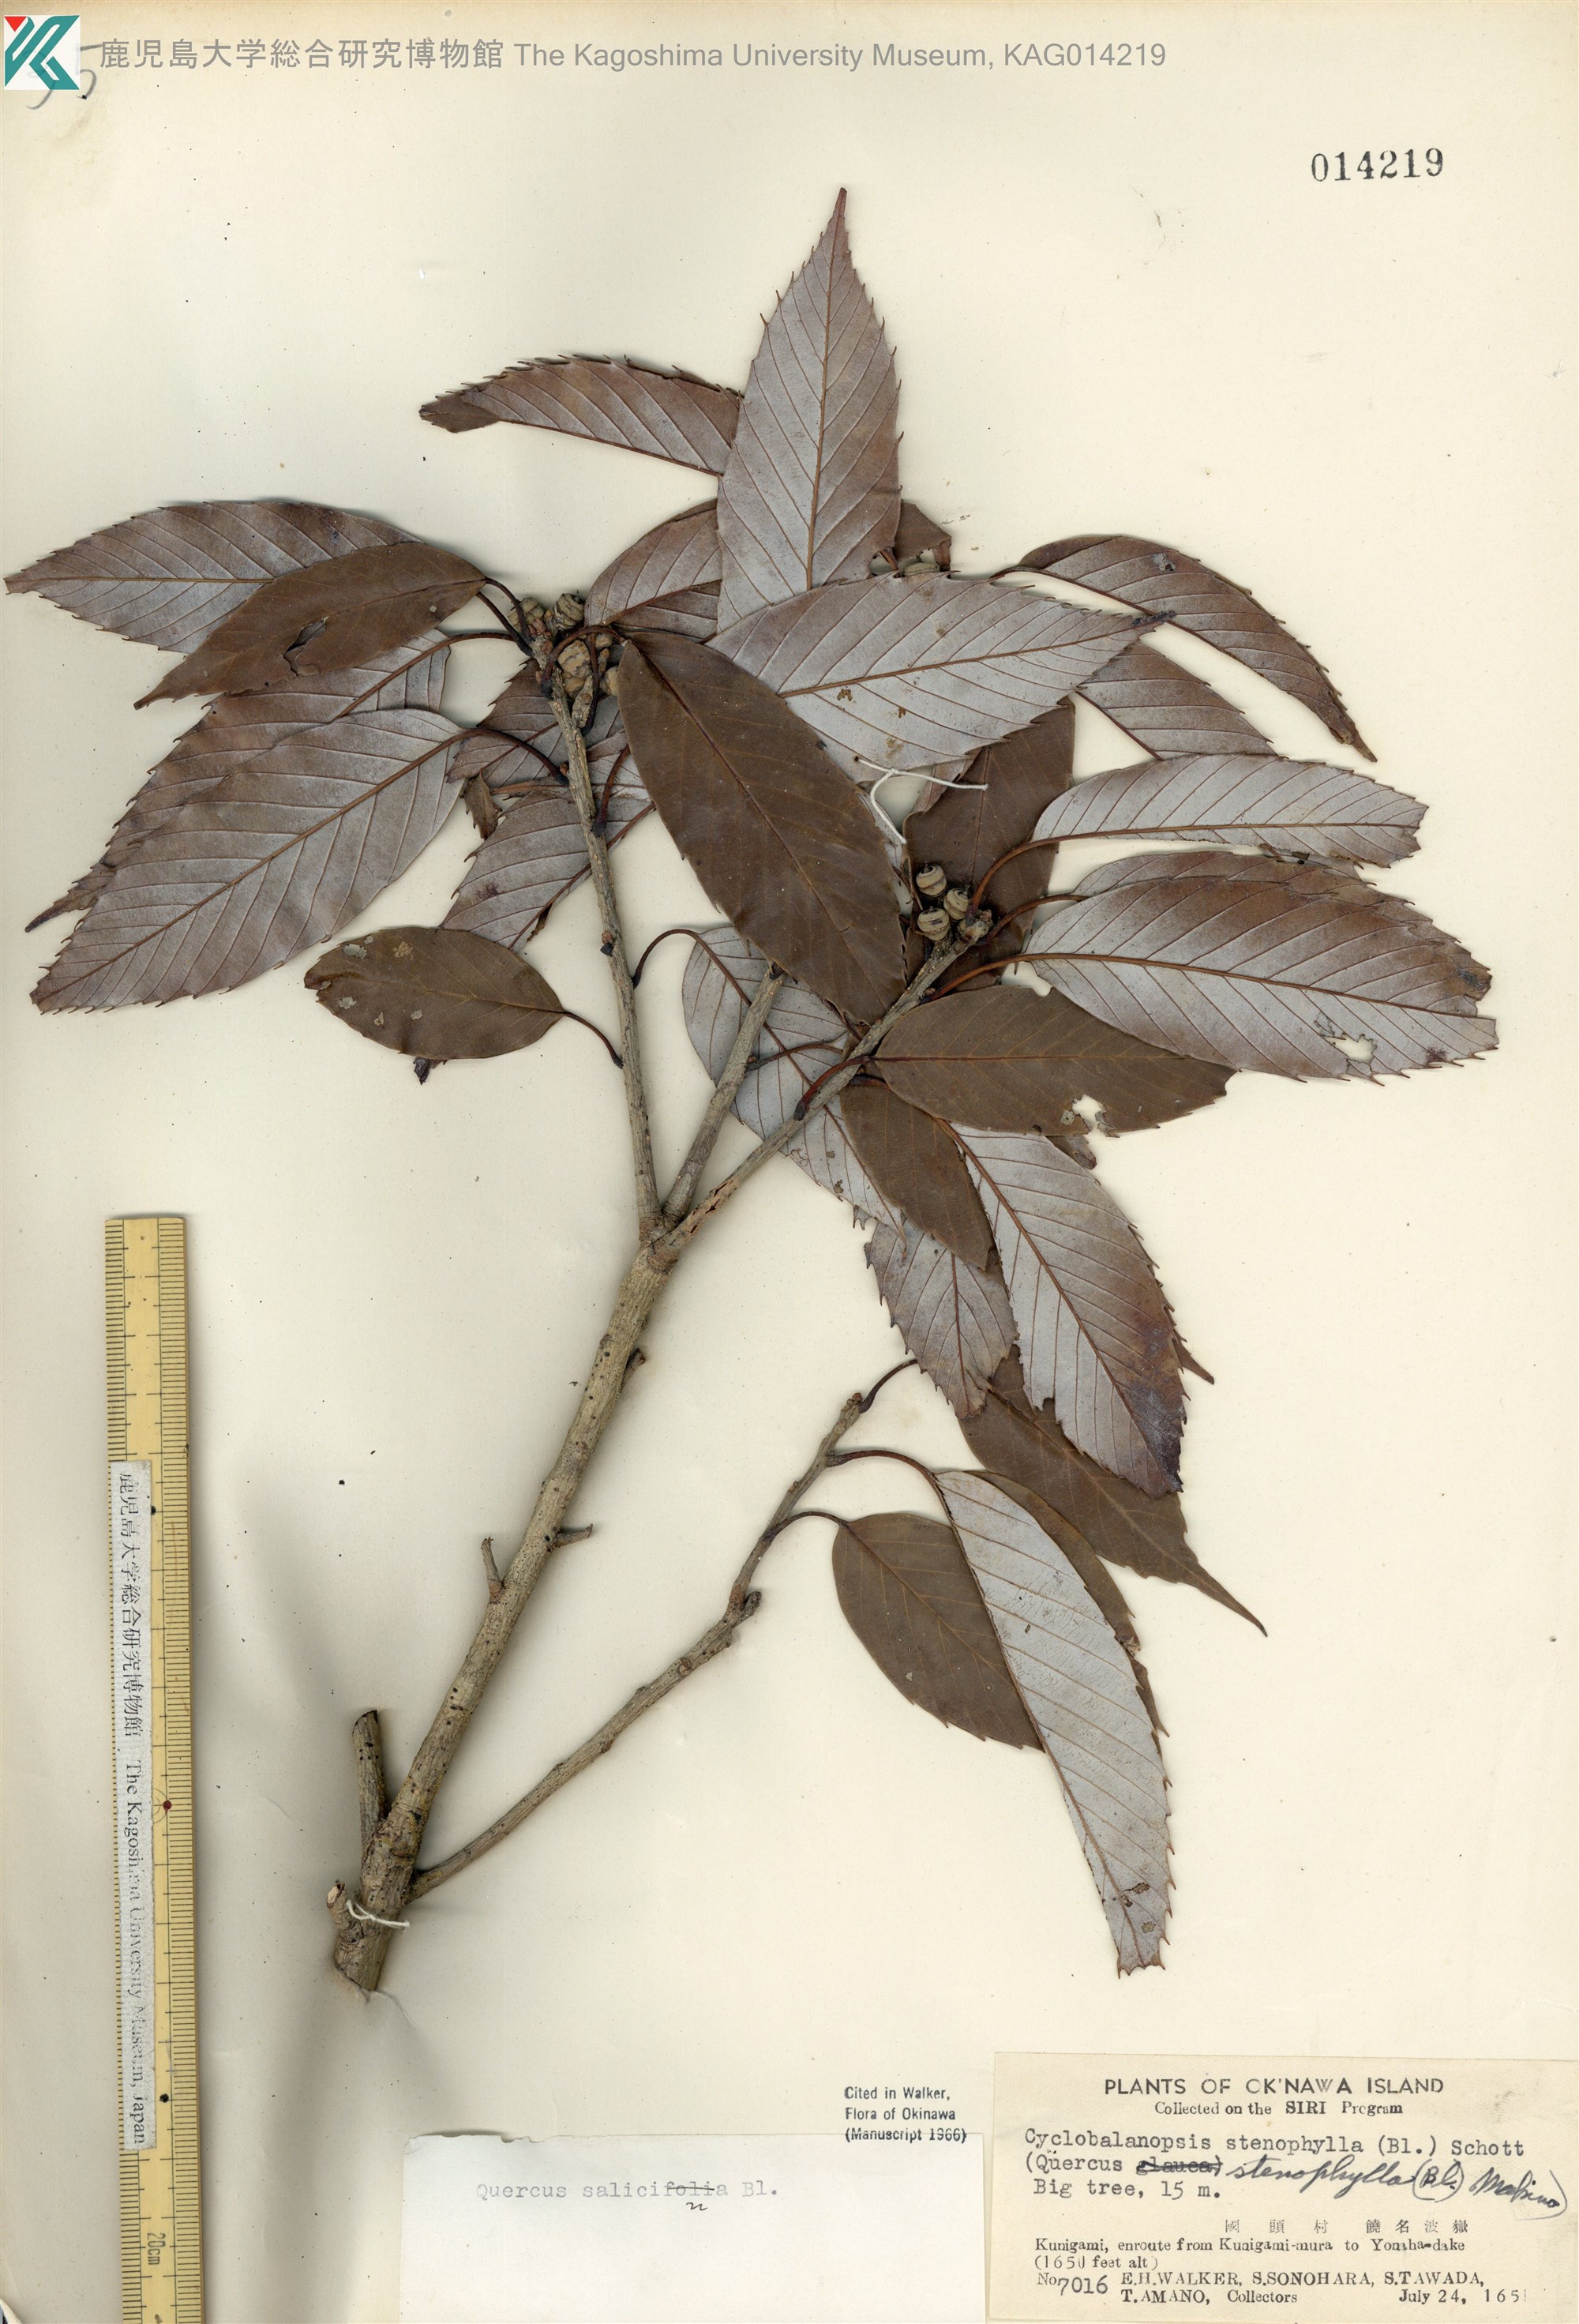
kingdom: Plantae
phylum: Tracheophyta
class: Magnoliopsida
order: Fagales
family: Fagaceae
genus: Quercus
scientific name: Quercus salicina
